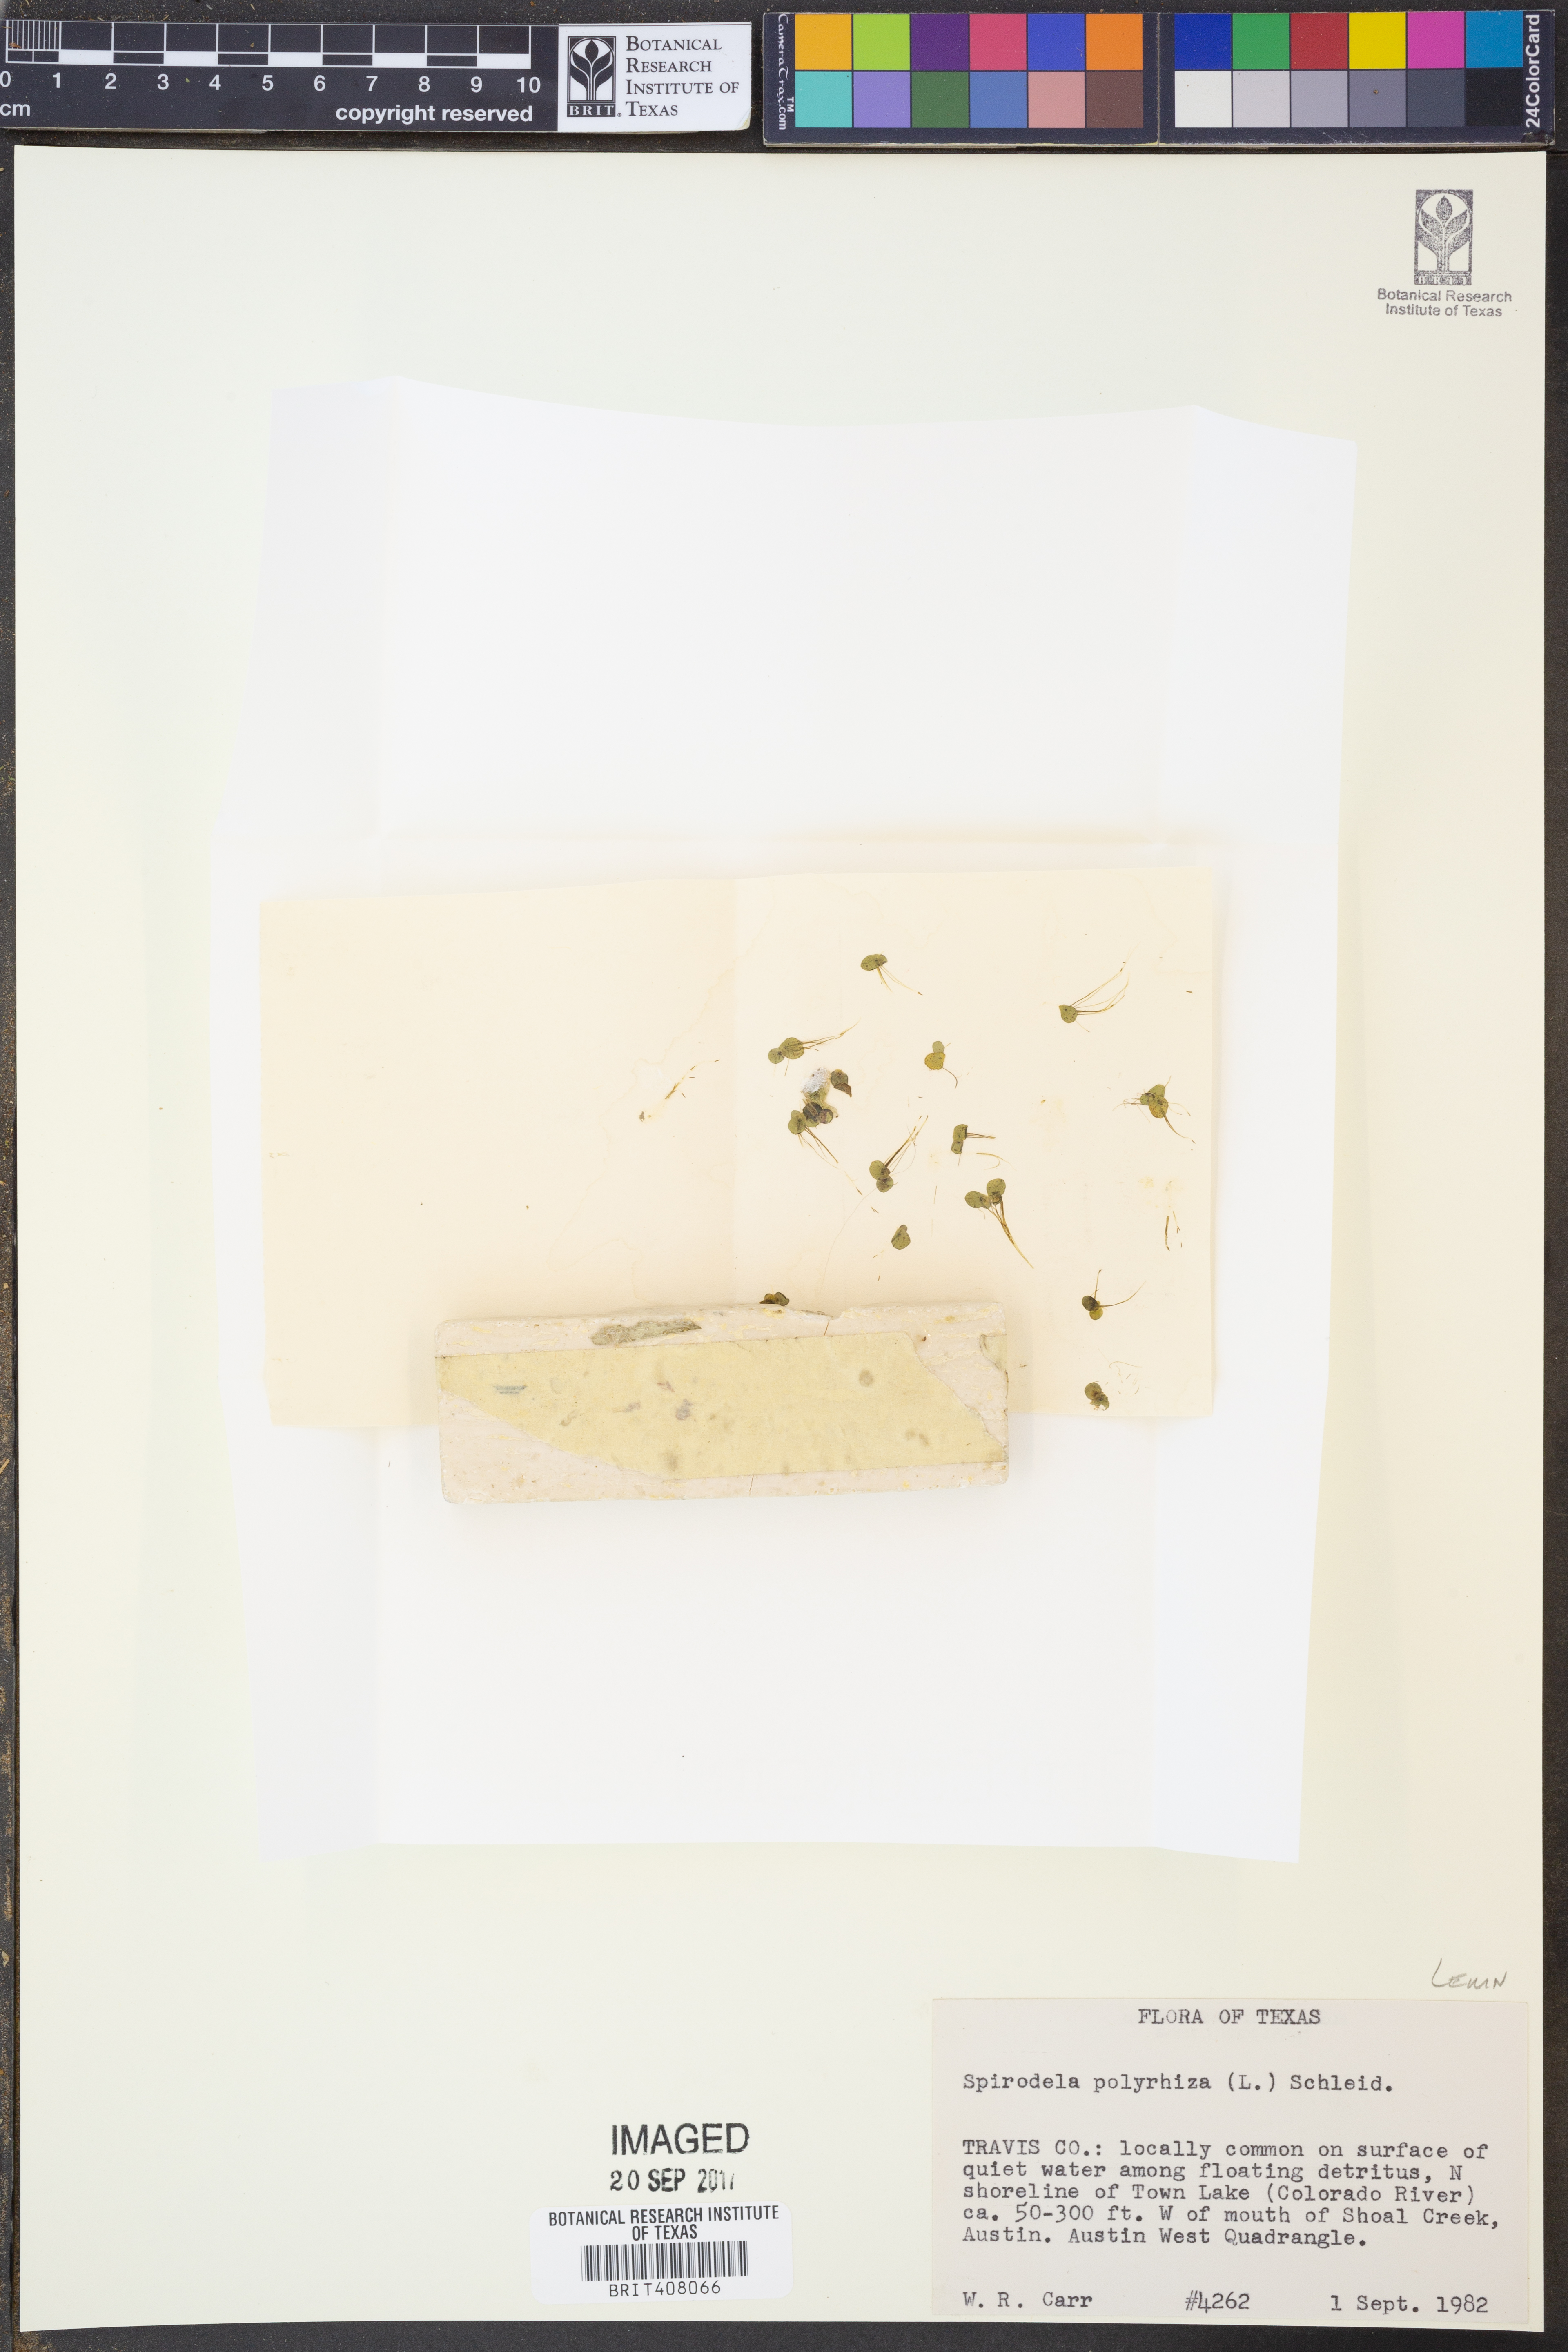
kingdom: Plantae
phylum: Tracheophyta
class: Liliopsida
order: Alismatales
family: Araceae
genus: Spirodela
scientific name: Spirodela polyrhiza
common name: Great duckweed
